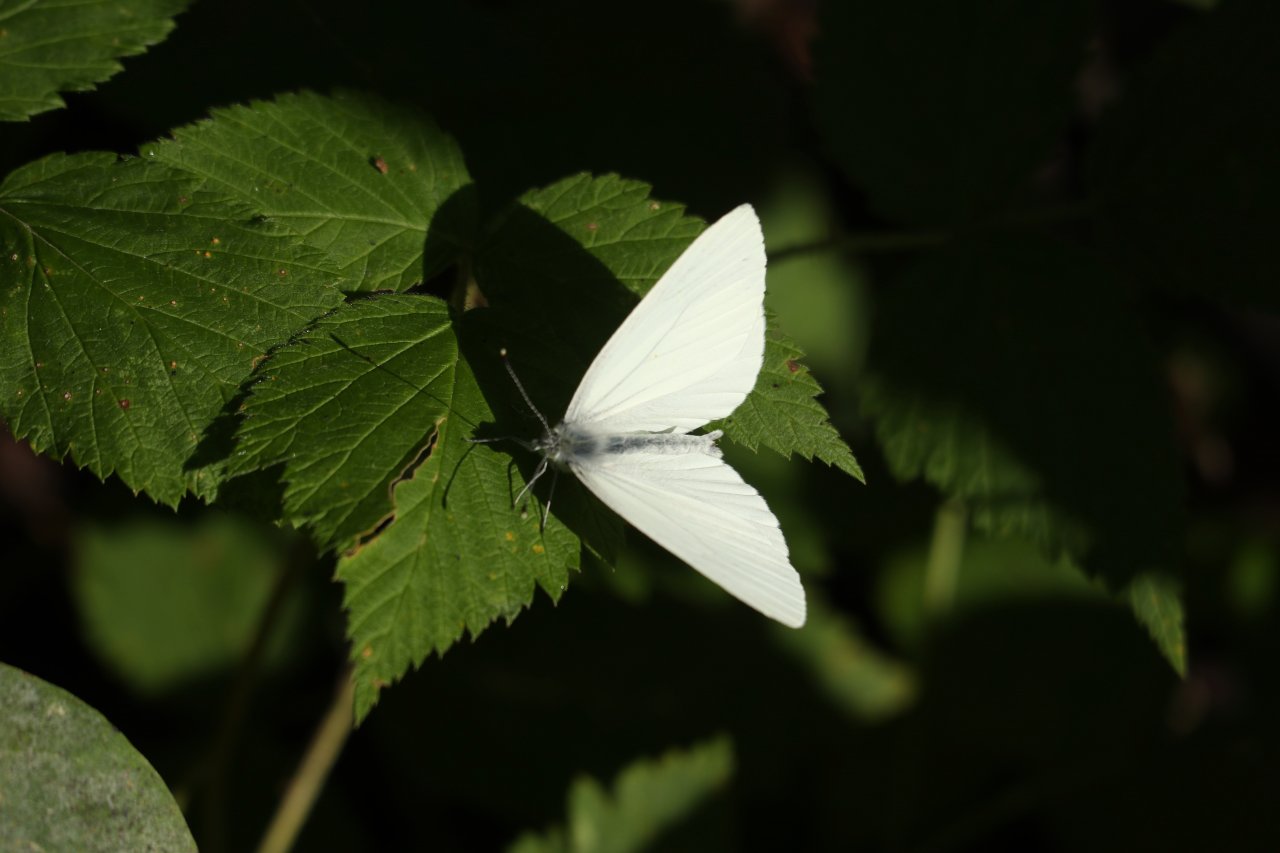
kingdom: Animalia
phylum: Arthropoda
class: Insecta
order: Lepidoptera
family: Pieridae
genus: Pieris
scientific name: Pieris oleracea
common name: Mustard White
